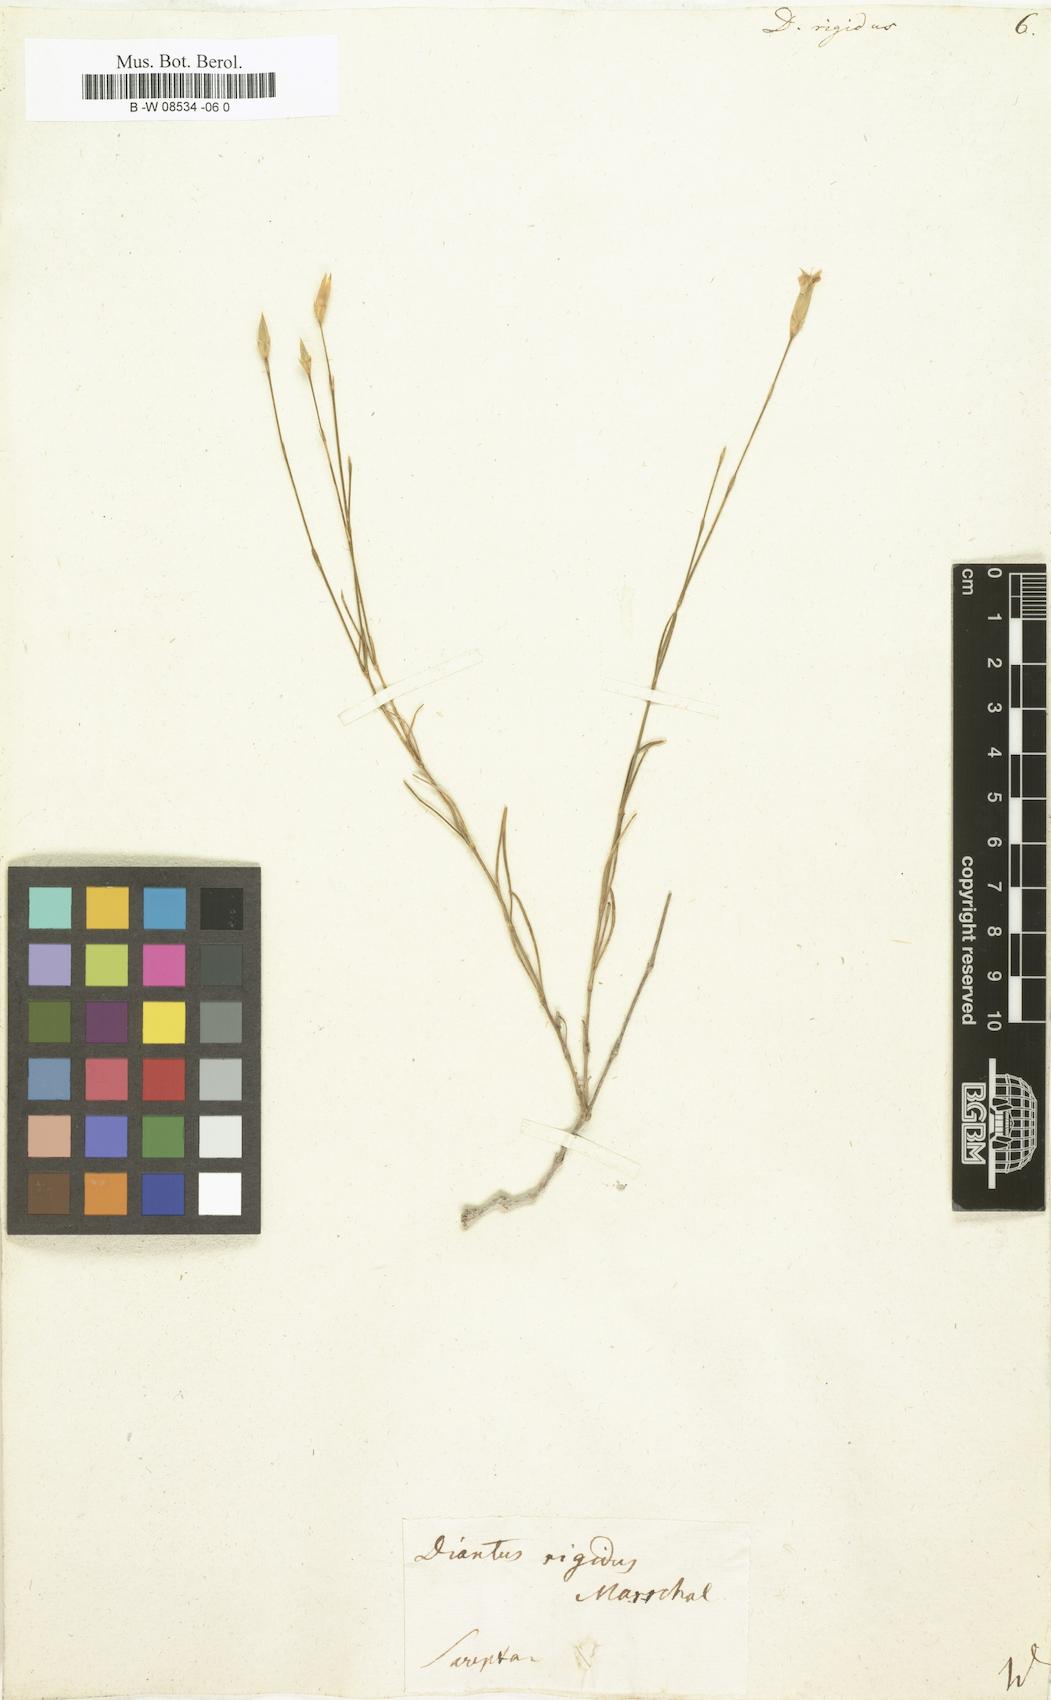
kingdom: Plantae
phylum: Tracheophyta
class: Magnoliopsida
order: Caryophyllales
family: Caryophyllaceae
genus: Dianthus
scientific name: Dianthus rigidus
